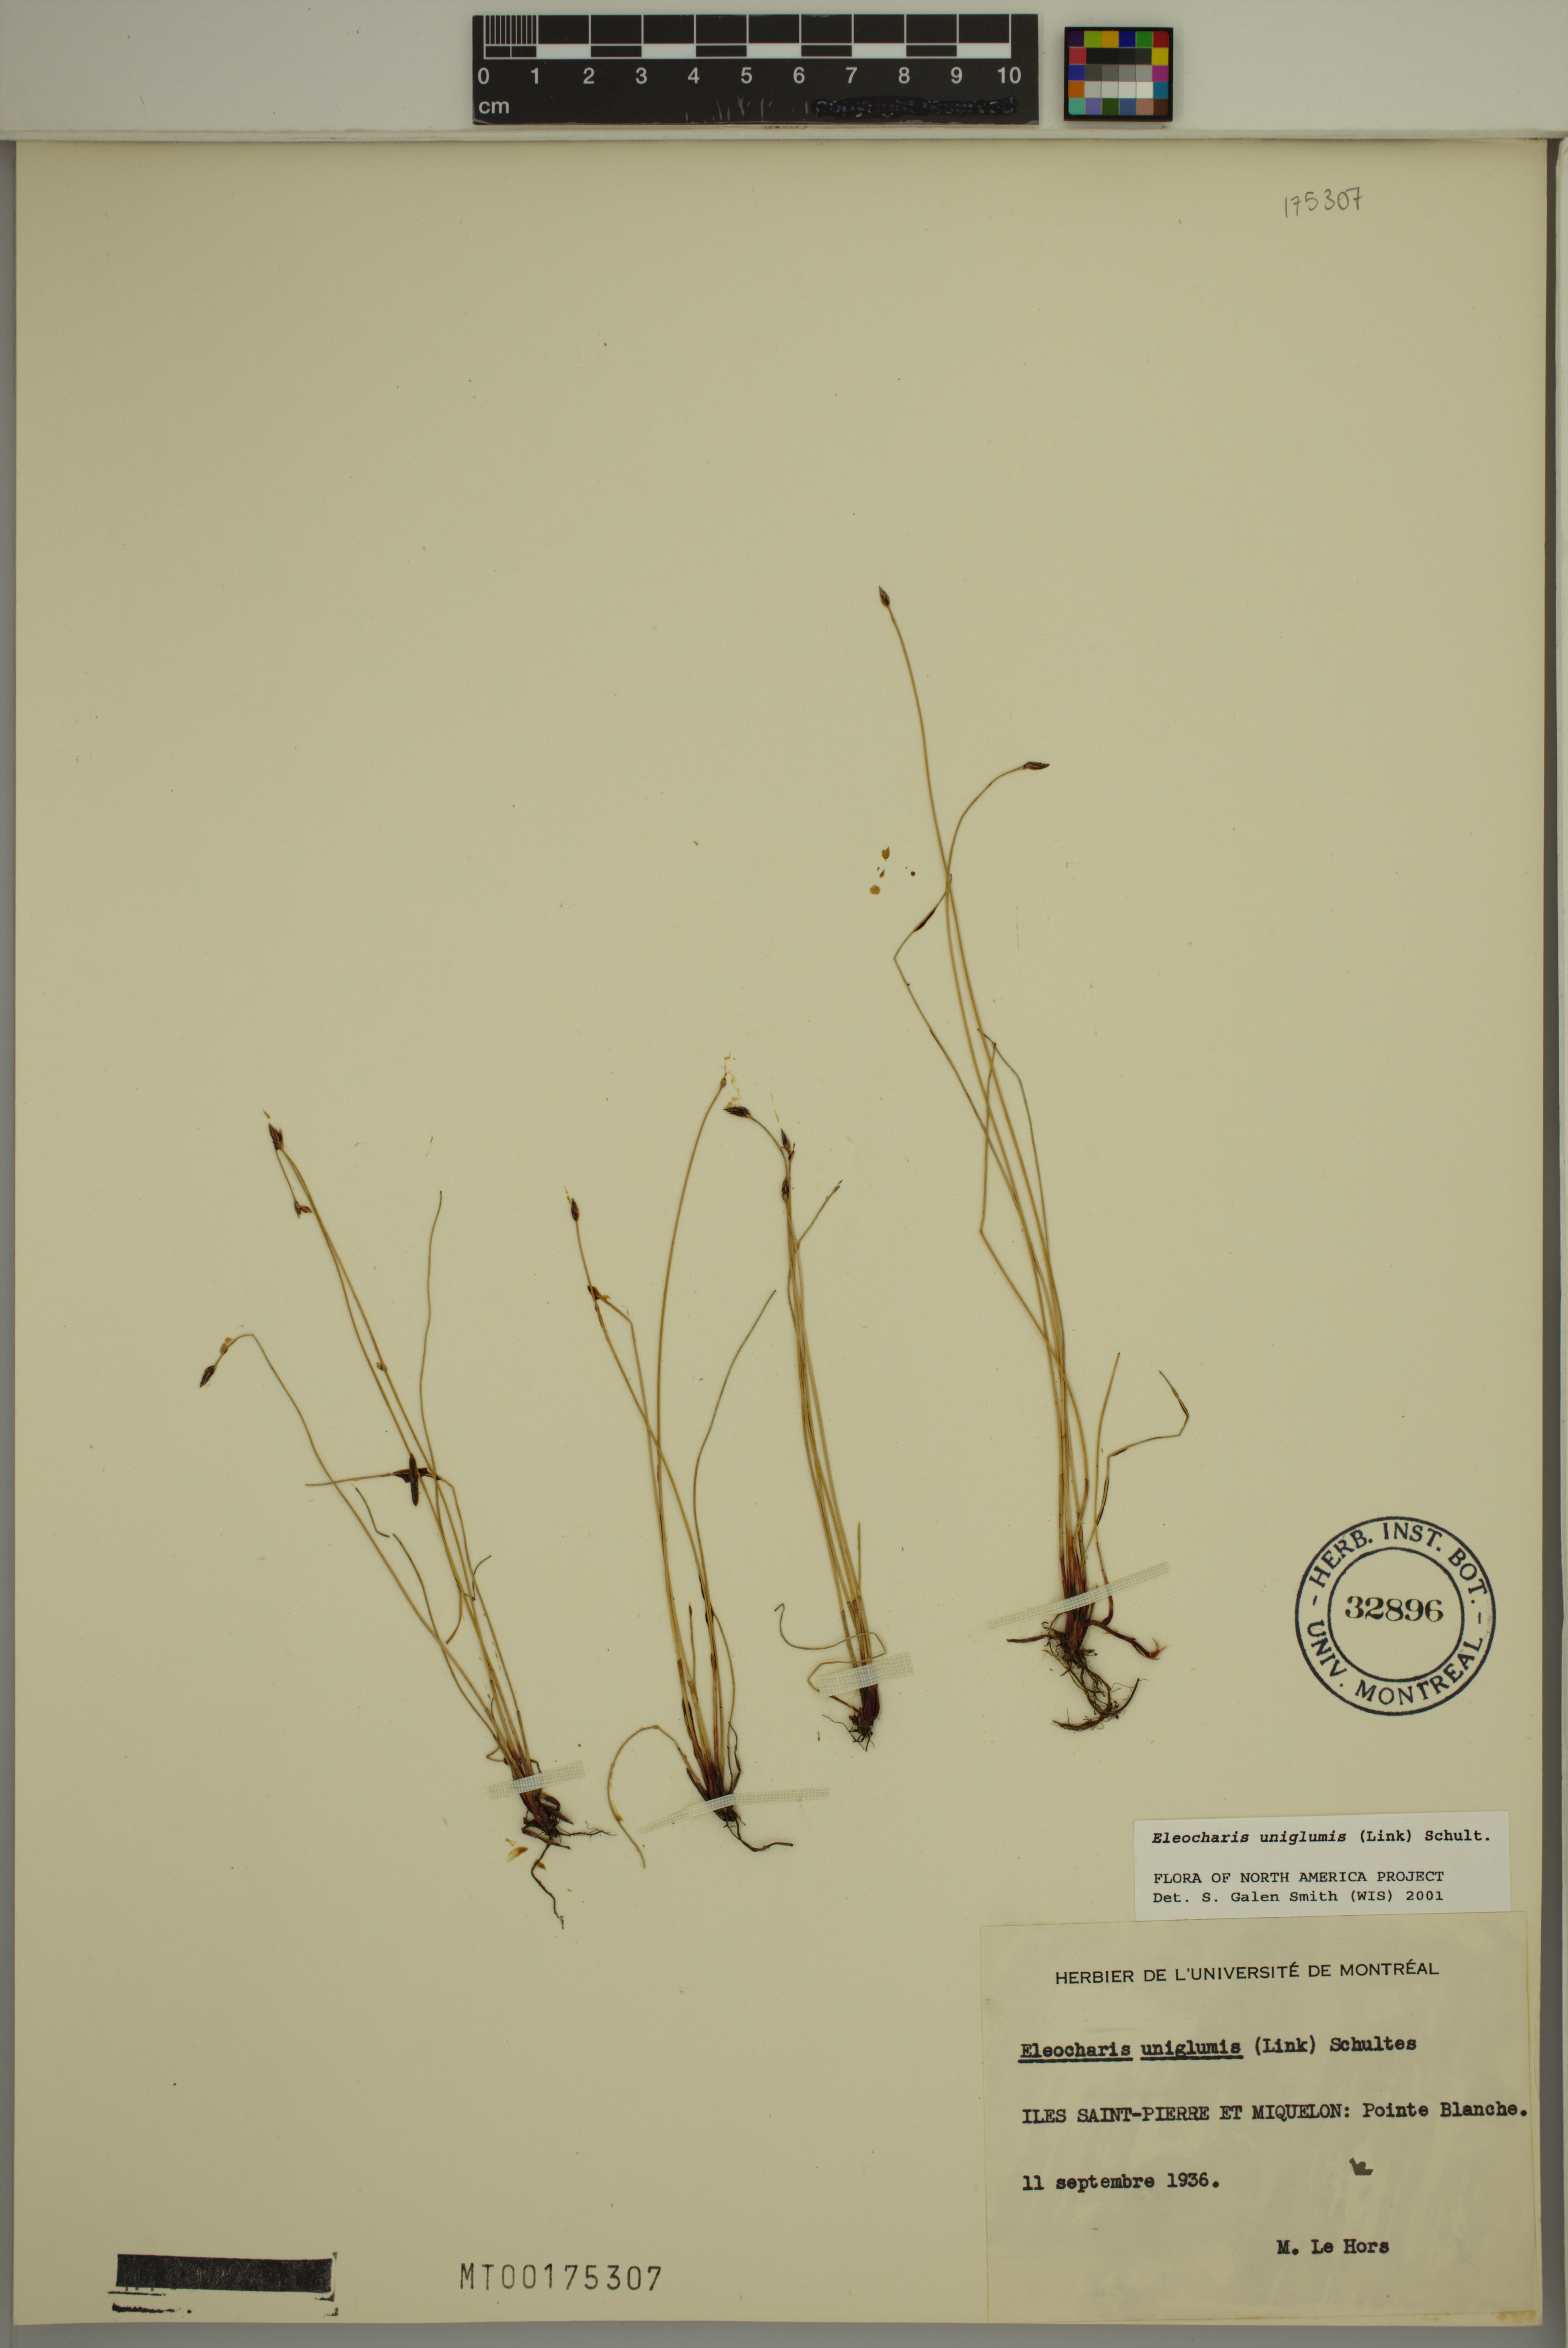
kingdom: Plantae
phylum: Tracheophyta
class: Liliopsida
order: Poales
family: Cyperaceae
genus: Eleocharis
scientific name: Eleocharis uniglumis
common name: Slender spike-rush
